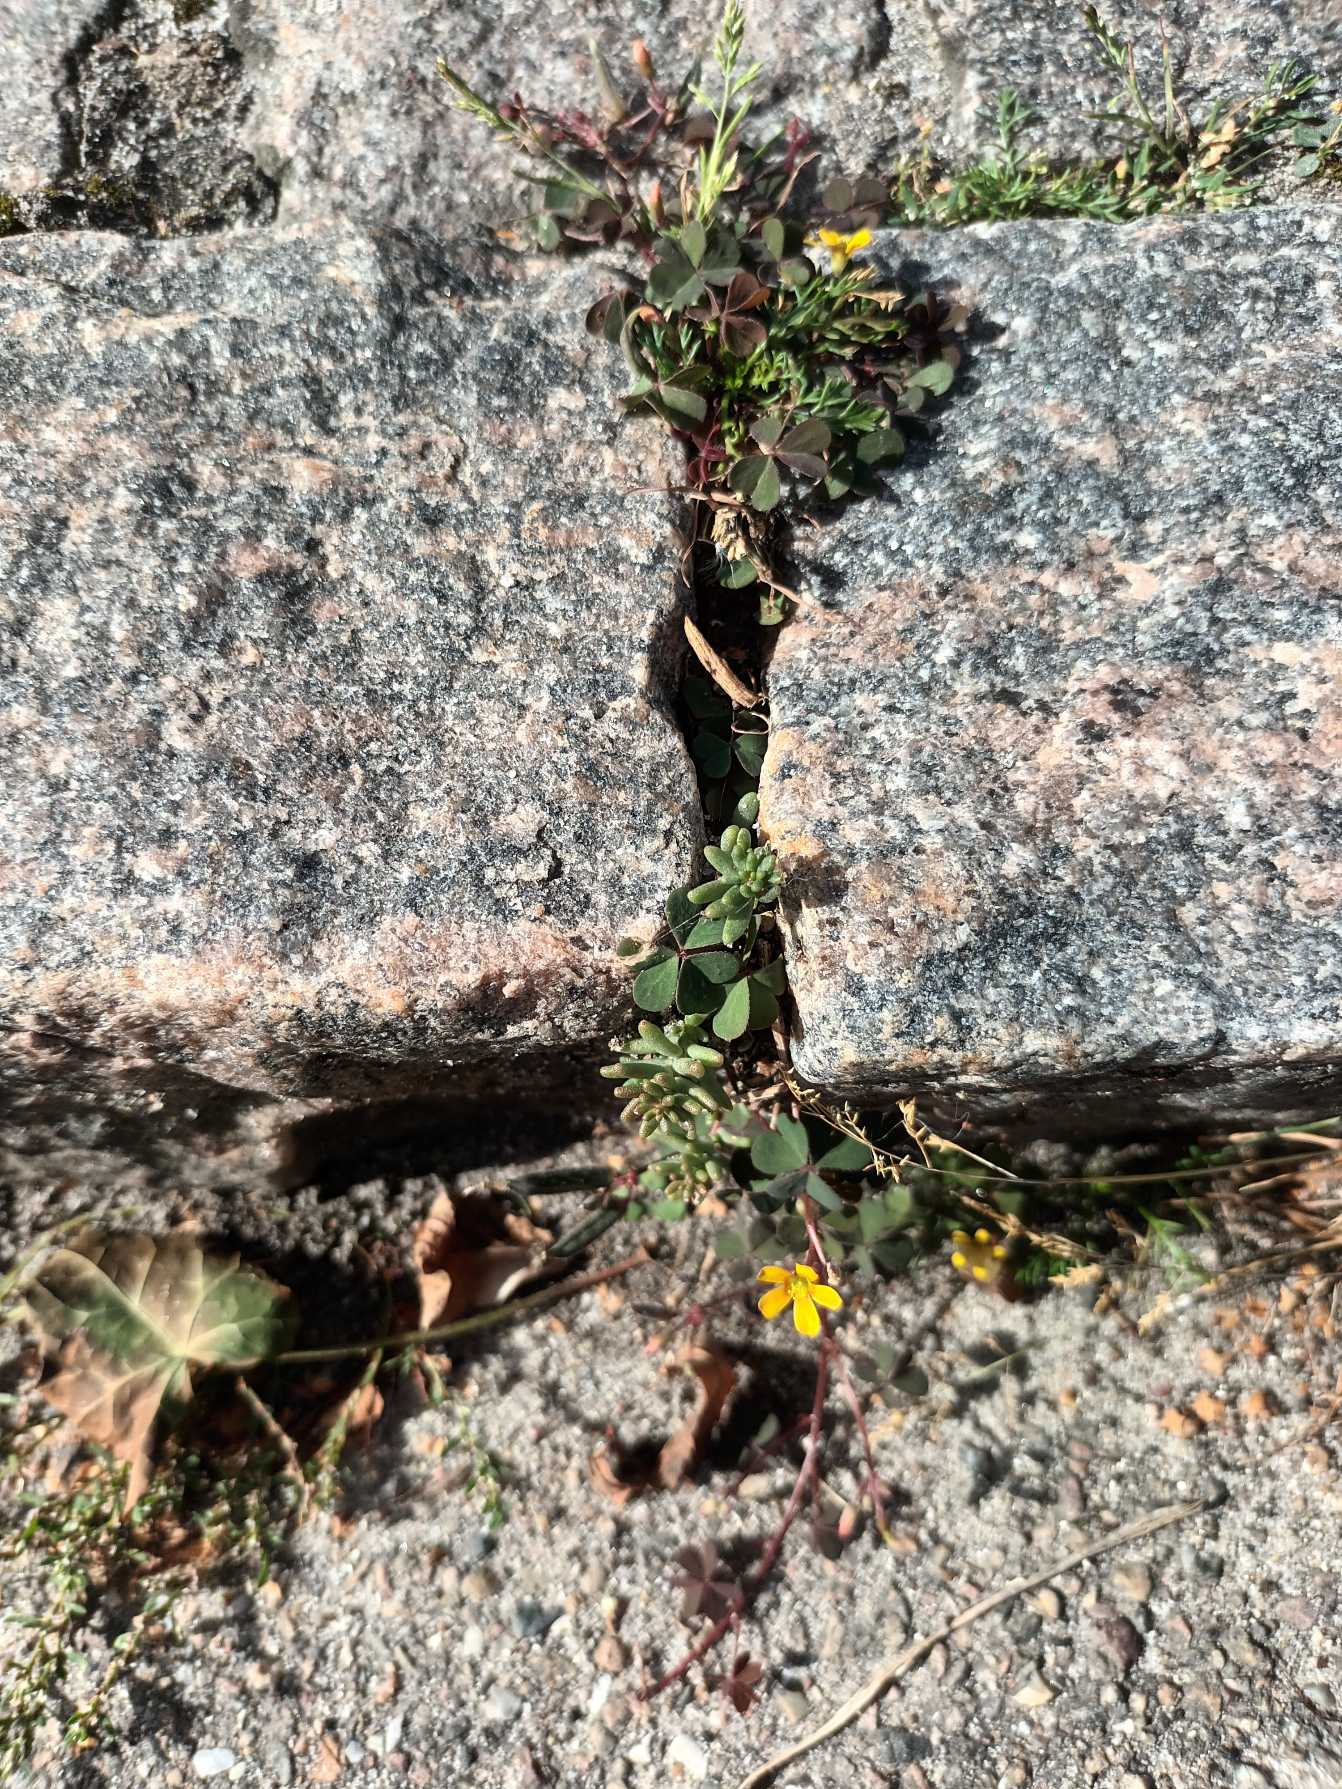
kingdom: Plantae
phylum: Tracheophyta
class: Magnoliopsida
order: Oxalidales
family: Oxalidaceae
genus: Oxalis
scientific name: Oxalis corniculata
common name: Nedliggende surkløver
